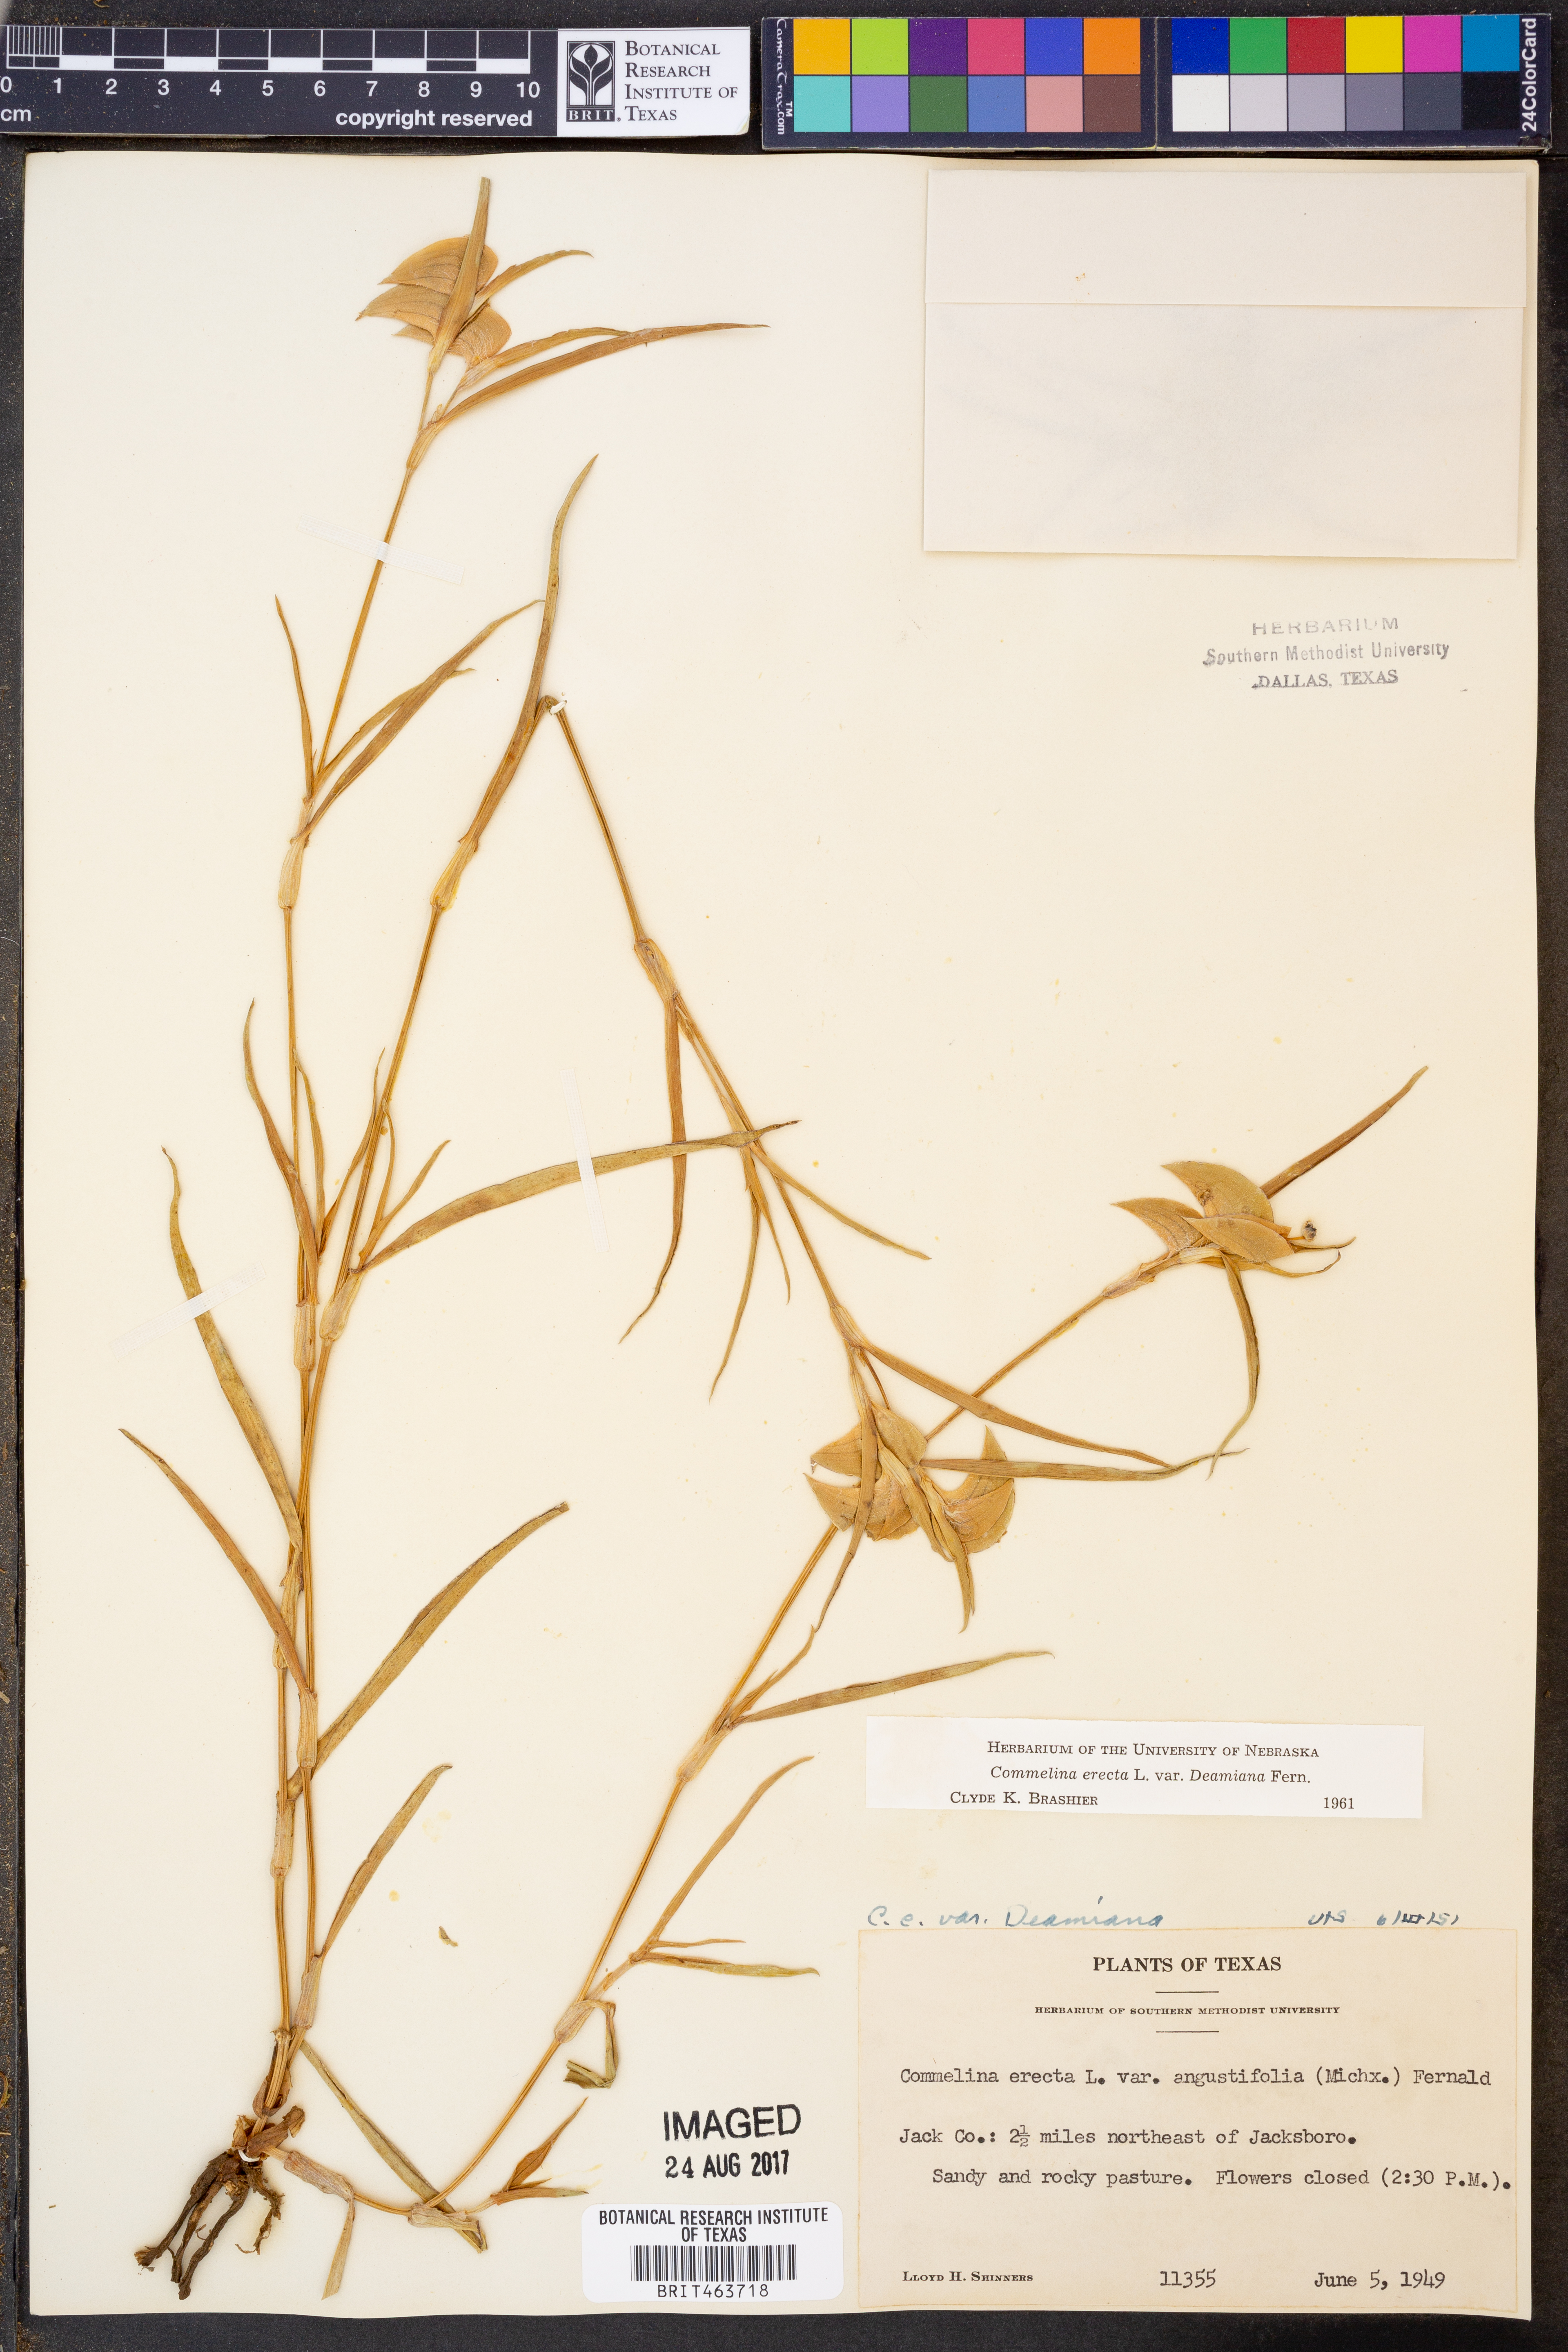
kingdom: Plantae
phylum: Tracheophyta
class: Liliopsida
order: Commelinales
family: Commelinaceae
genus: Commelina
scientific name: Commelina erecta
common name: Blousel blommetjie
